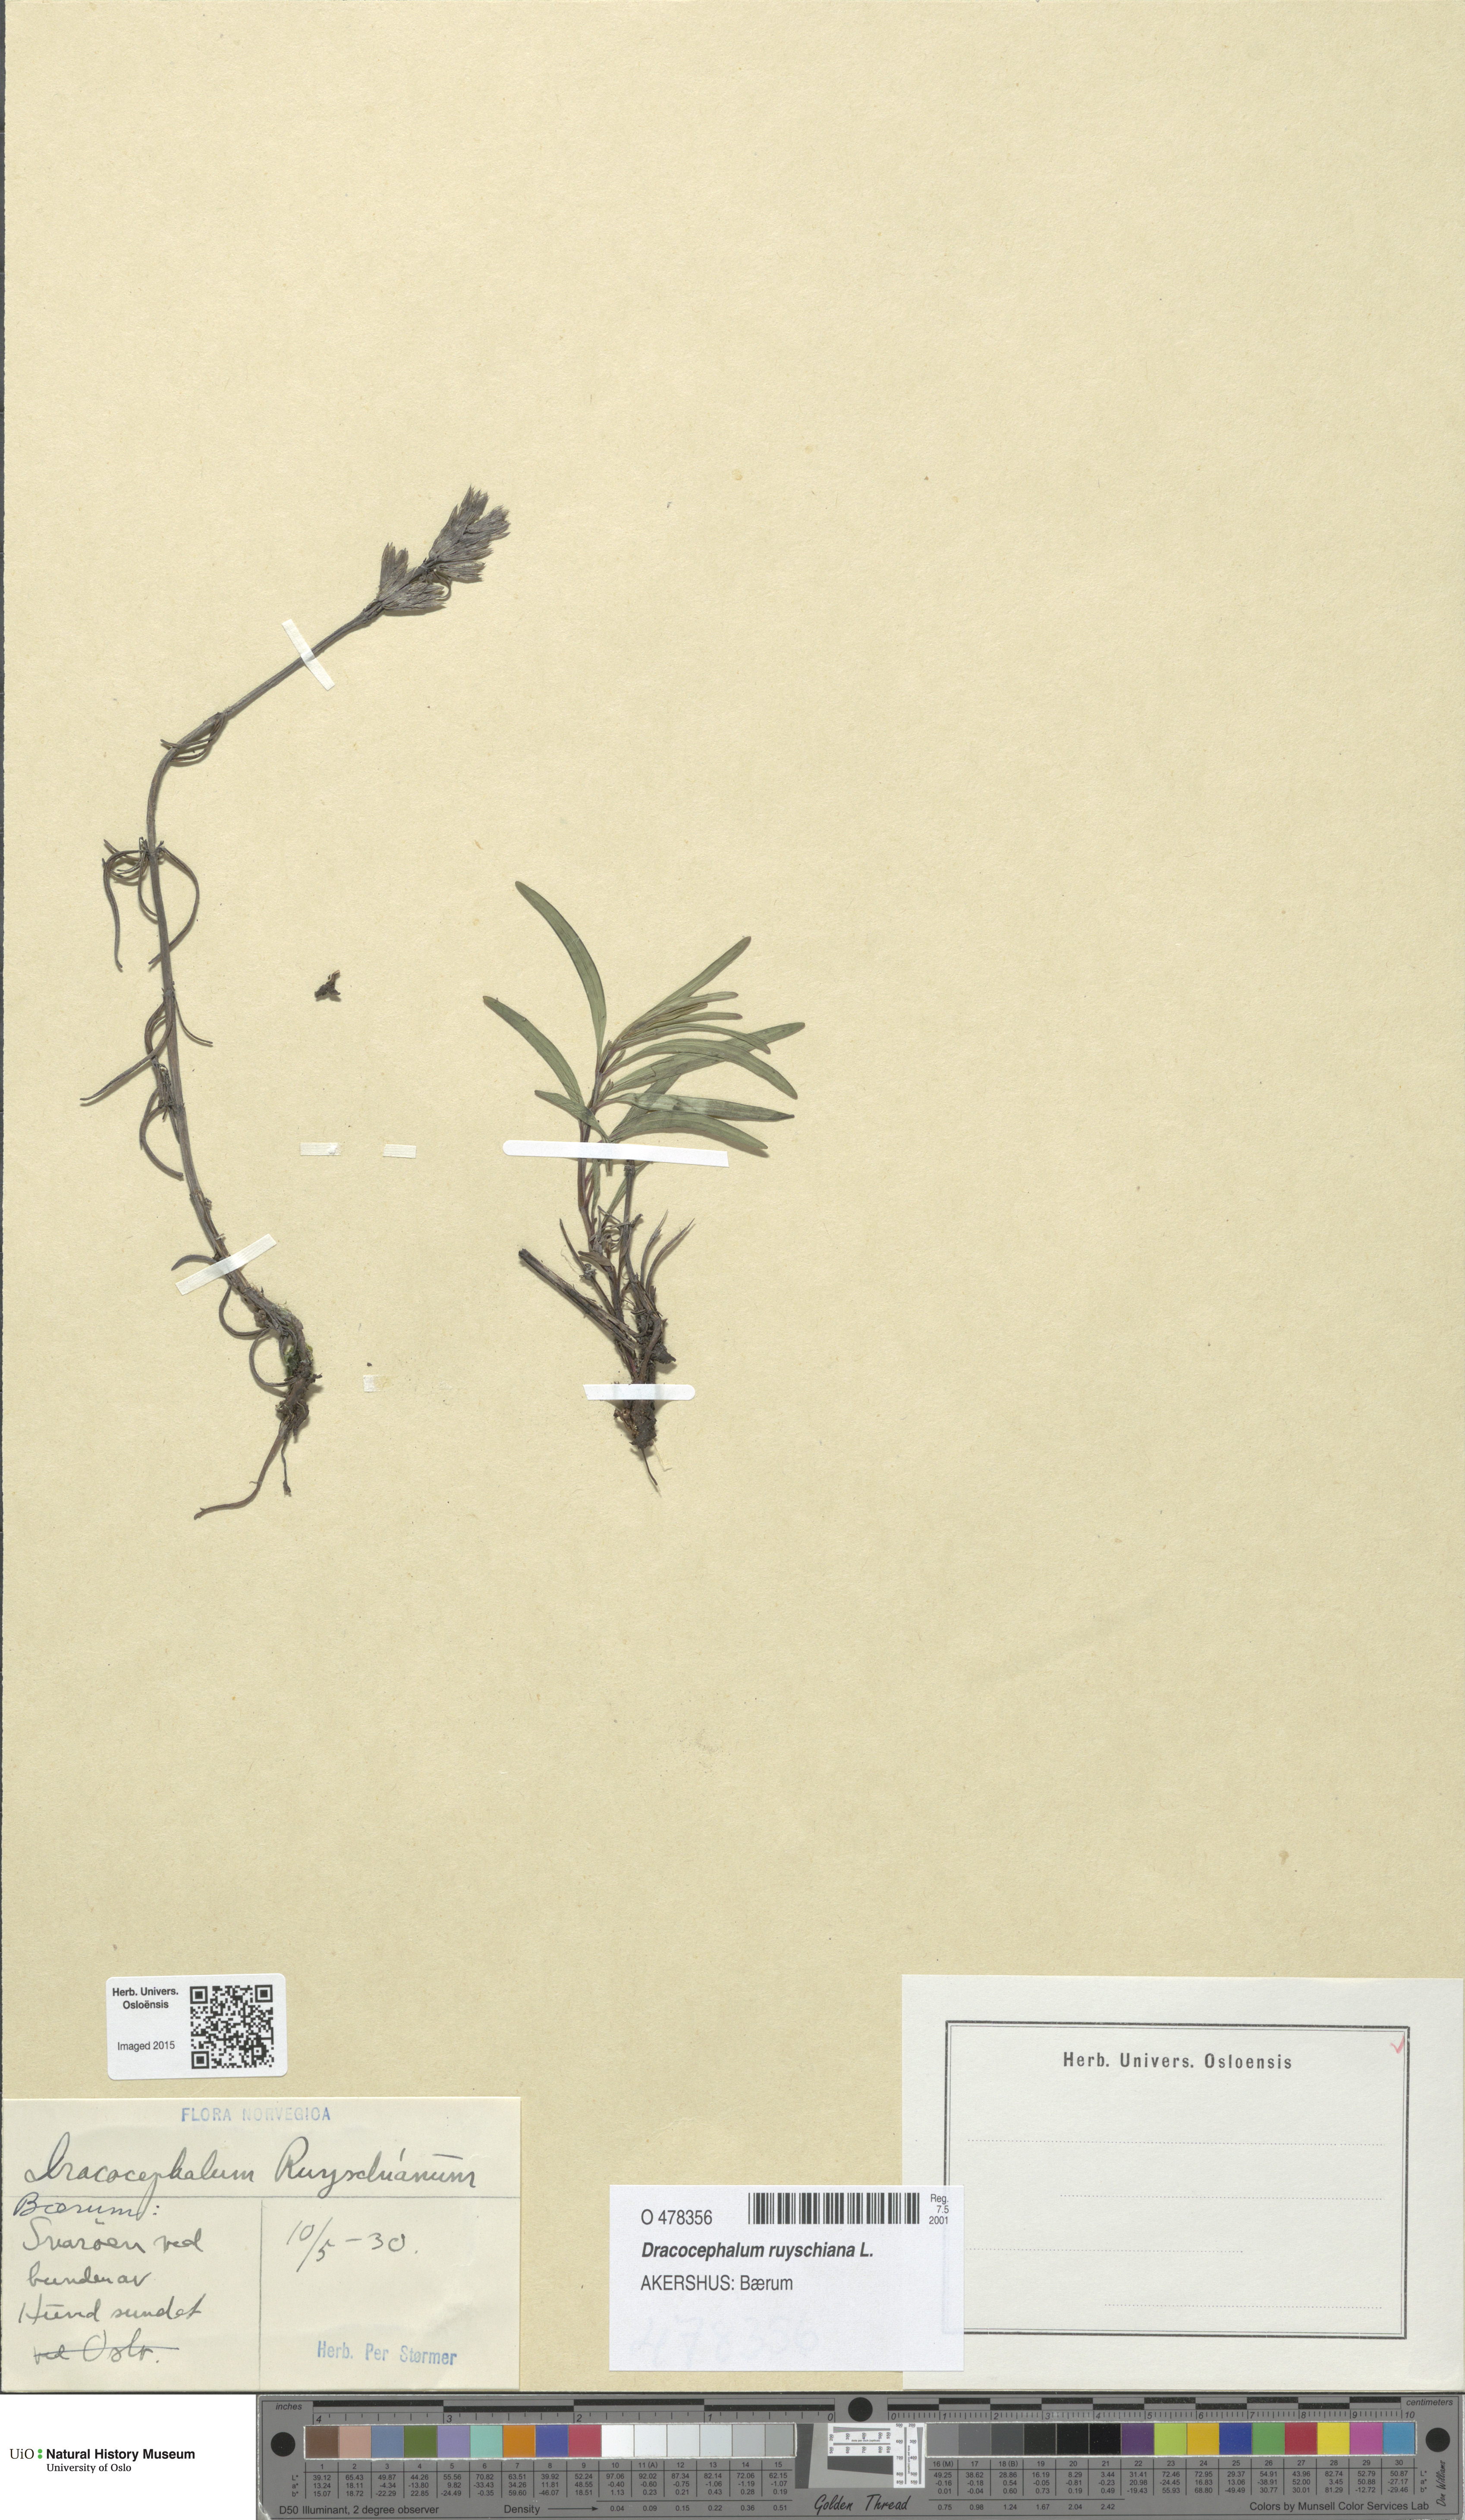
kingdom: Plantae
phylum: Tracheophyta
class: Magnoliopsida
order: Lamiales
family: Lamiaceae
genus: Dracocephalum
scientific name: Dracocephalum ruyschiana
